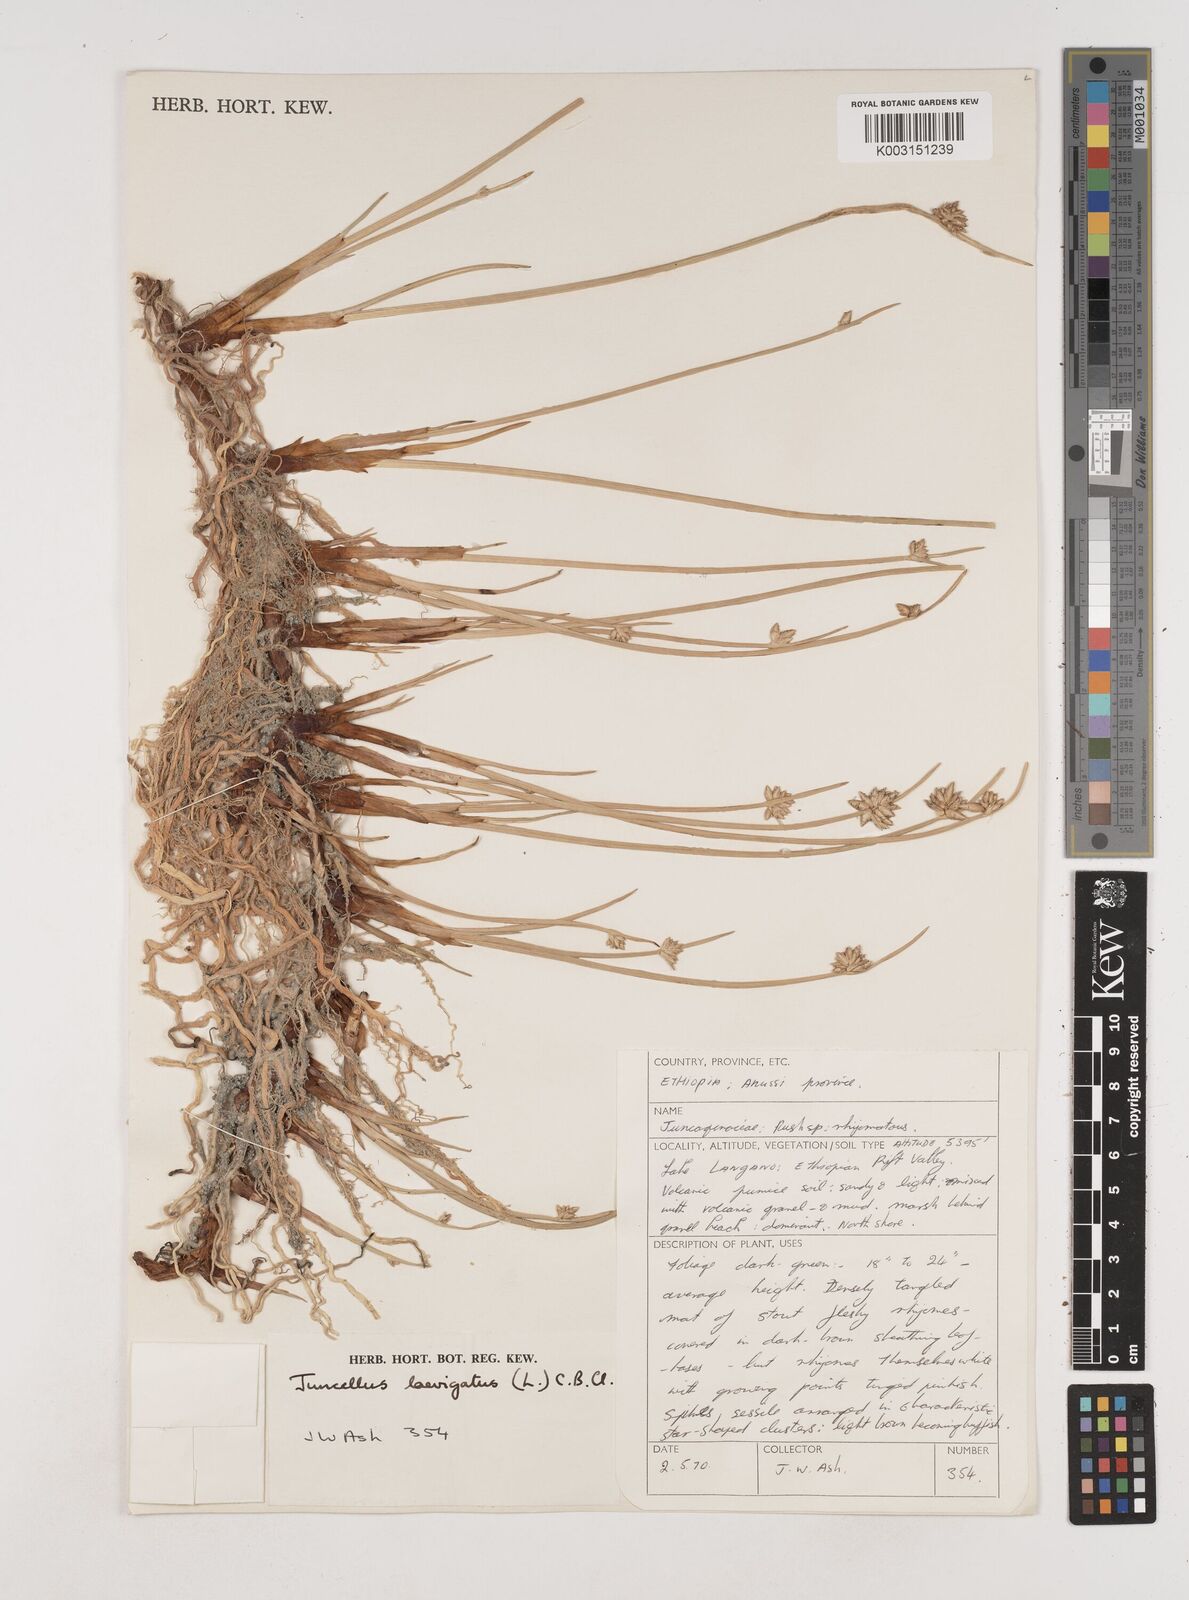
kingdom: Plantae
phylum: Tracheophyta
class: Liliopsida
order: Poales
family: Cyperaceae
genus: Cyperus
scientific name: Cyperus laevigatus
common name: Smooth flat sedge
